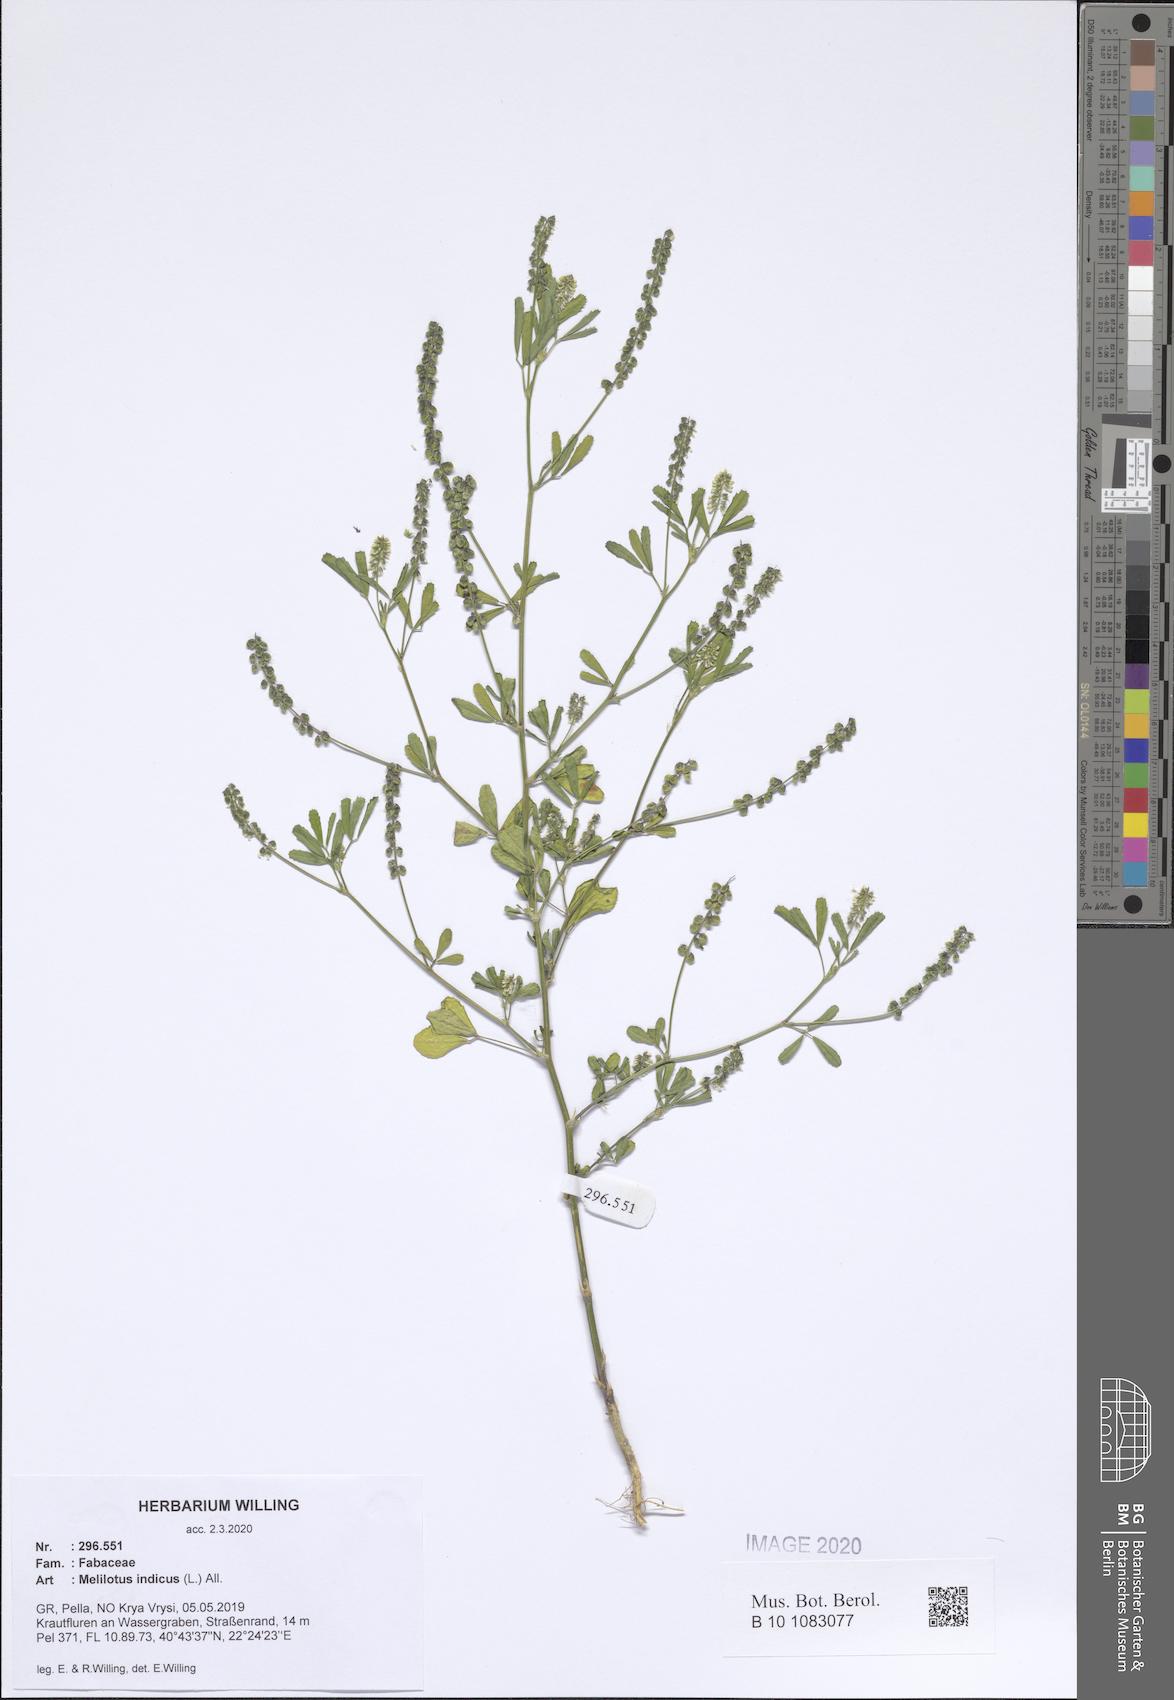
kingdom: Plantae
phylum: Tracheophyta
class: Magnoliopsida
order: Fabales
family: Fabaceae
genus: Melilotus
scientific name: Melilotus indicus
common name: Small melilot
